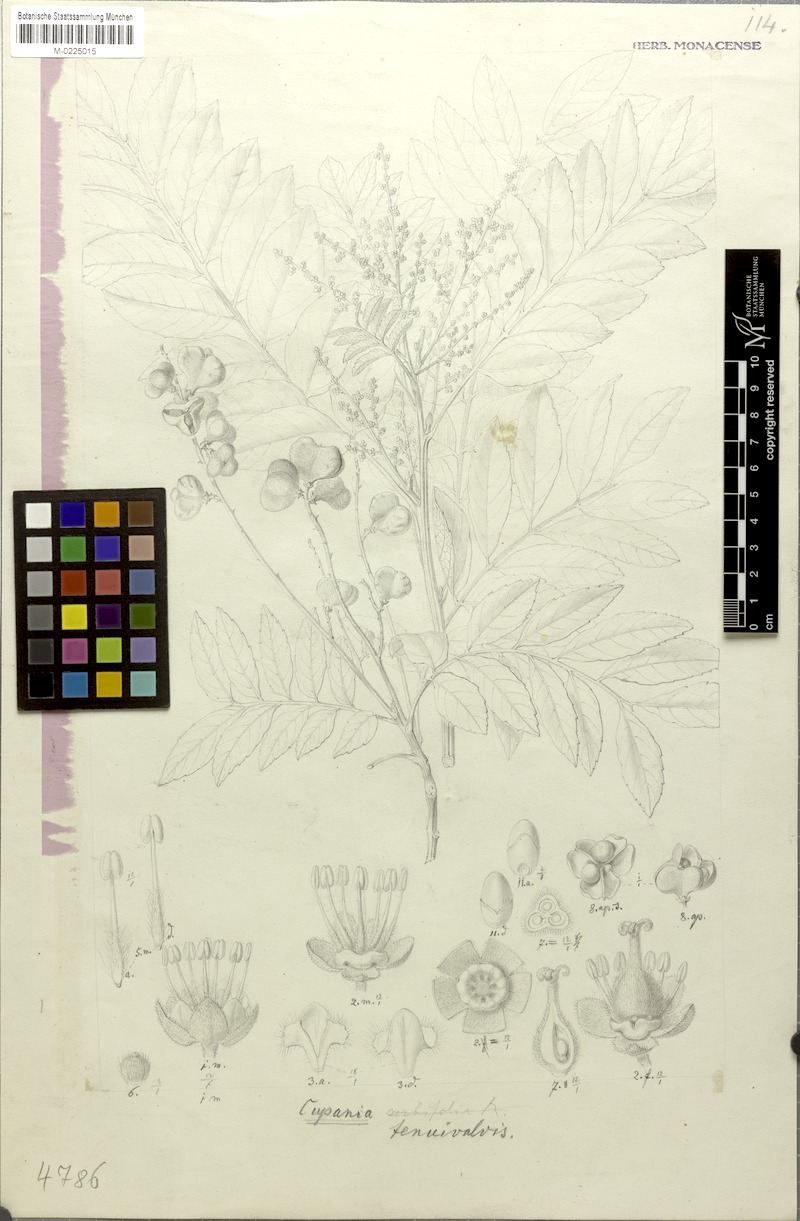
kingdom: Plantae
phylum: Tracheophyta
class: Magnoliopsida
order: Sapindales
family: Sapindaceae
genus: Cupania
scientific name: Cupania tenuivalvis
